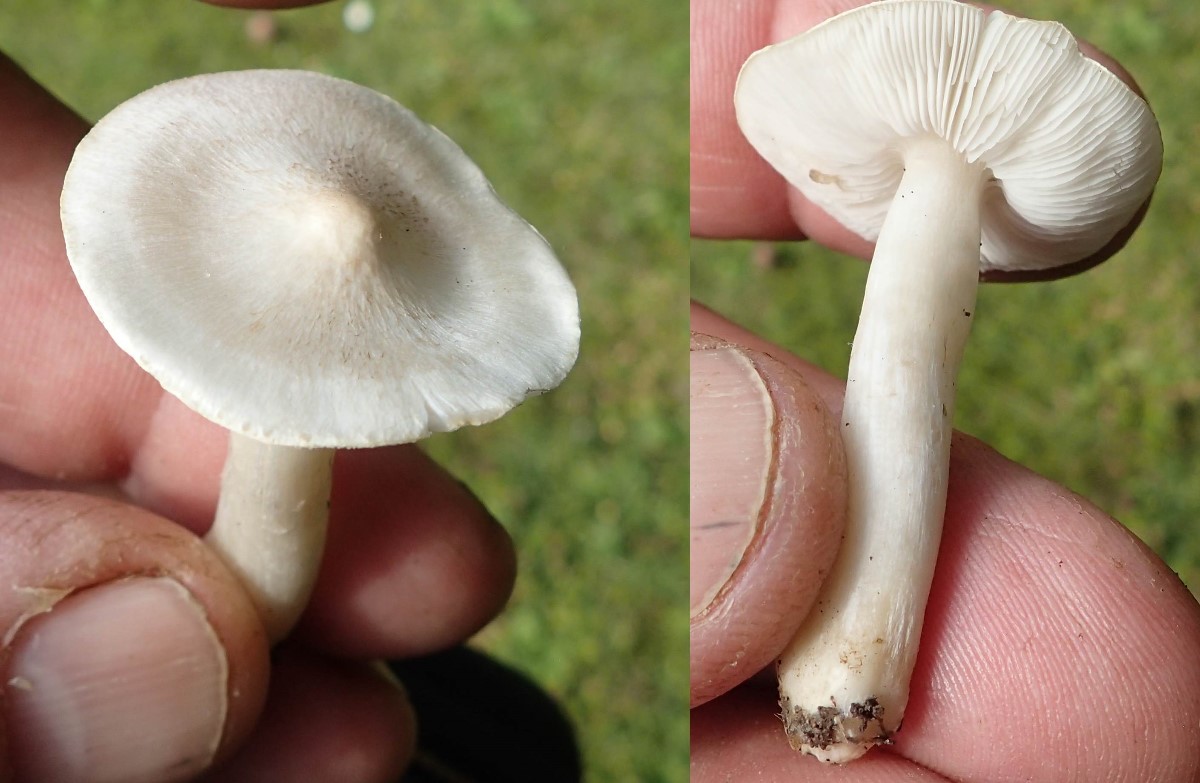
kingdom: Fungi
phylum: Basidiomycota
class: Agaricomycetes
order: Agaricales
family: Tricholomataceae
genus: Tricholoma
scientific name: Tricholoma argyraceum
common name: spids ridderhat
